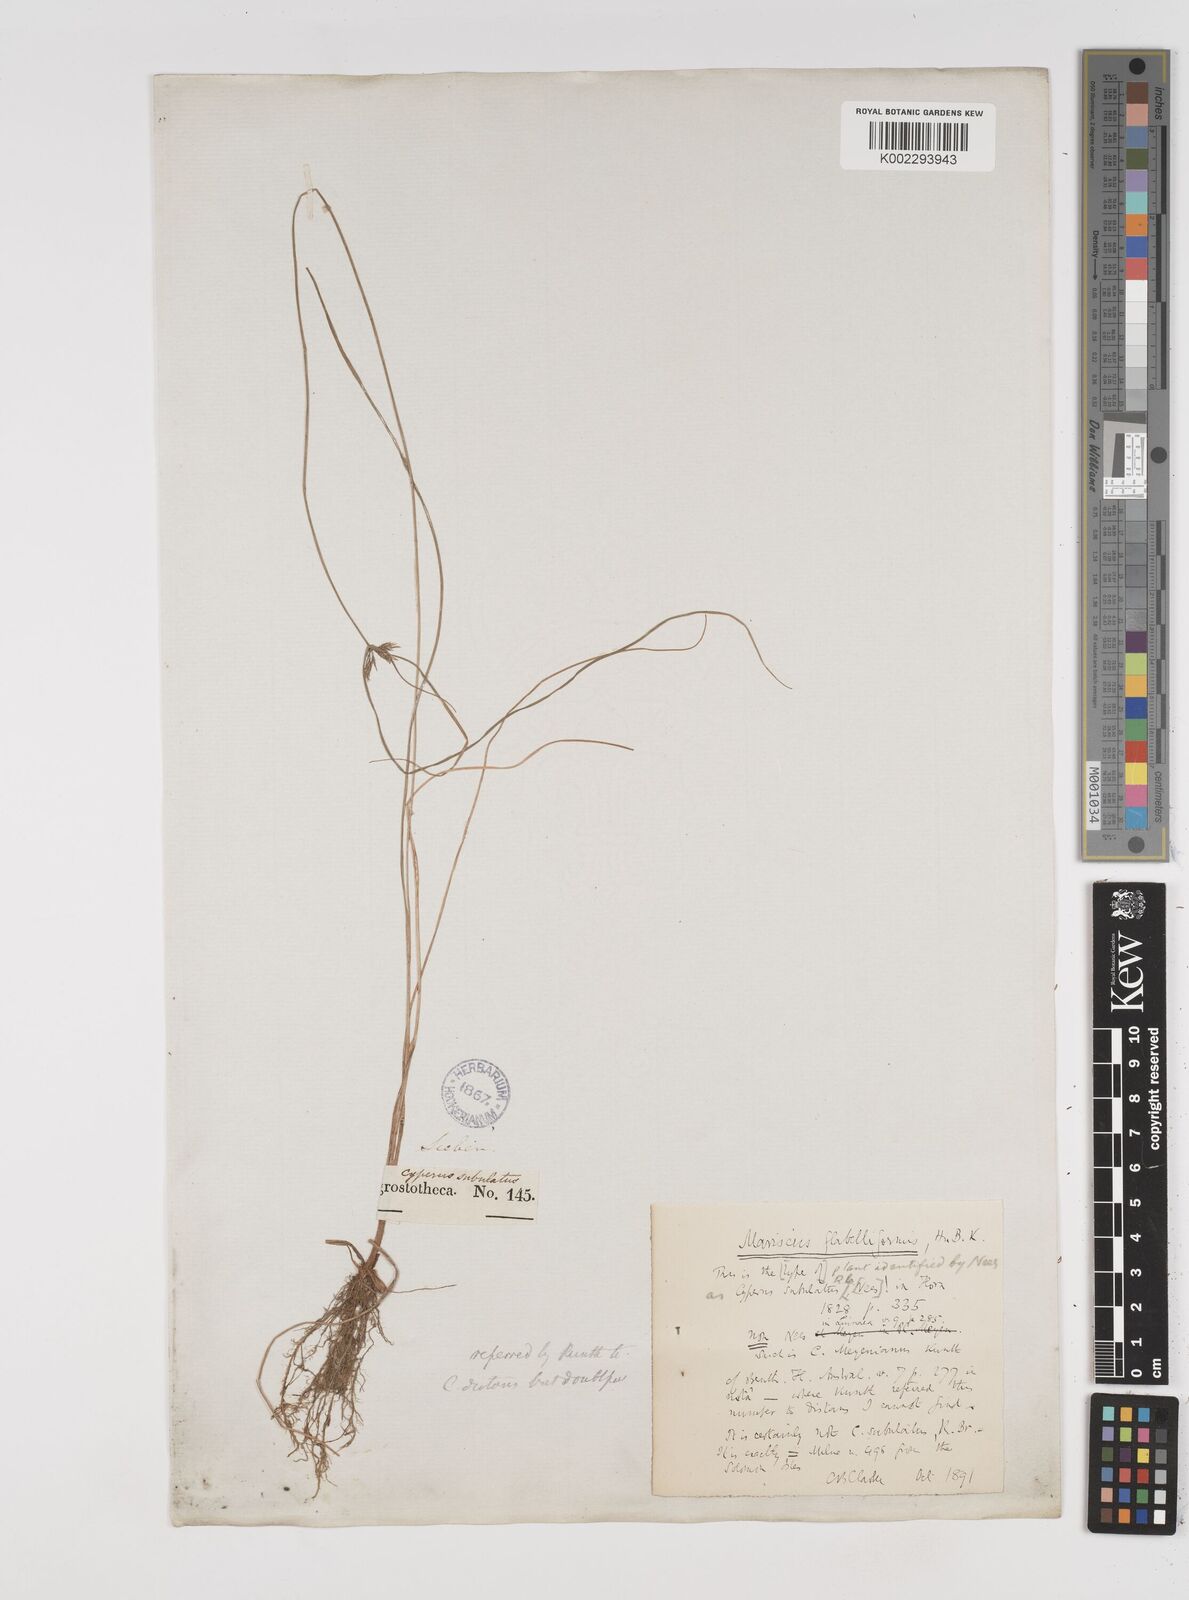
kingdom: Plantae
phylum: Tracheophyta
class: Liliopsida
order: Poales
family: Cyperaceae
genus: Cyperus
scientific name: Cyperus tenuis
